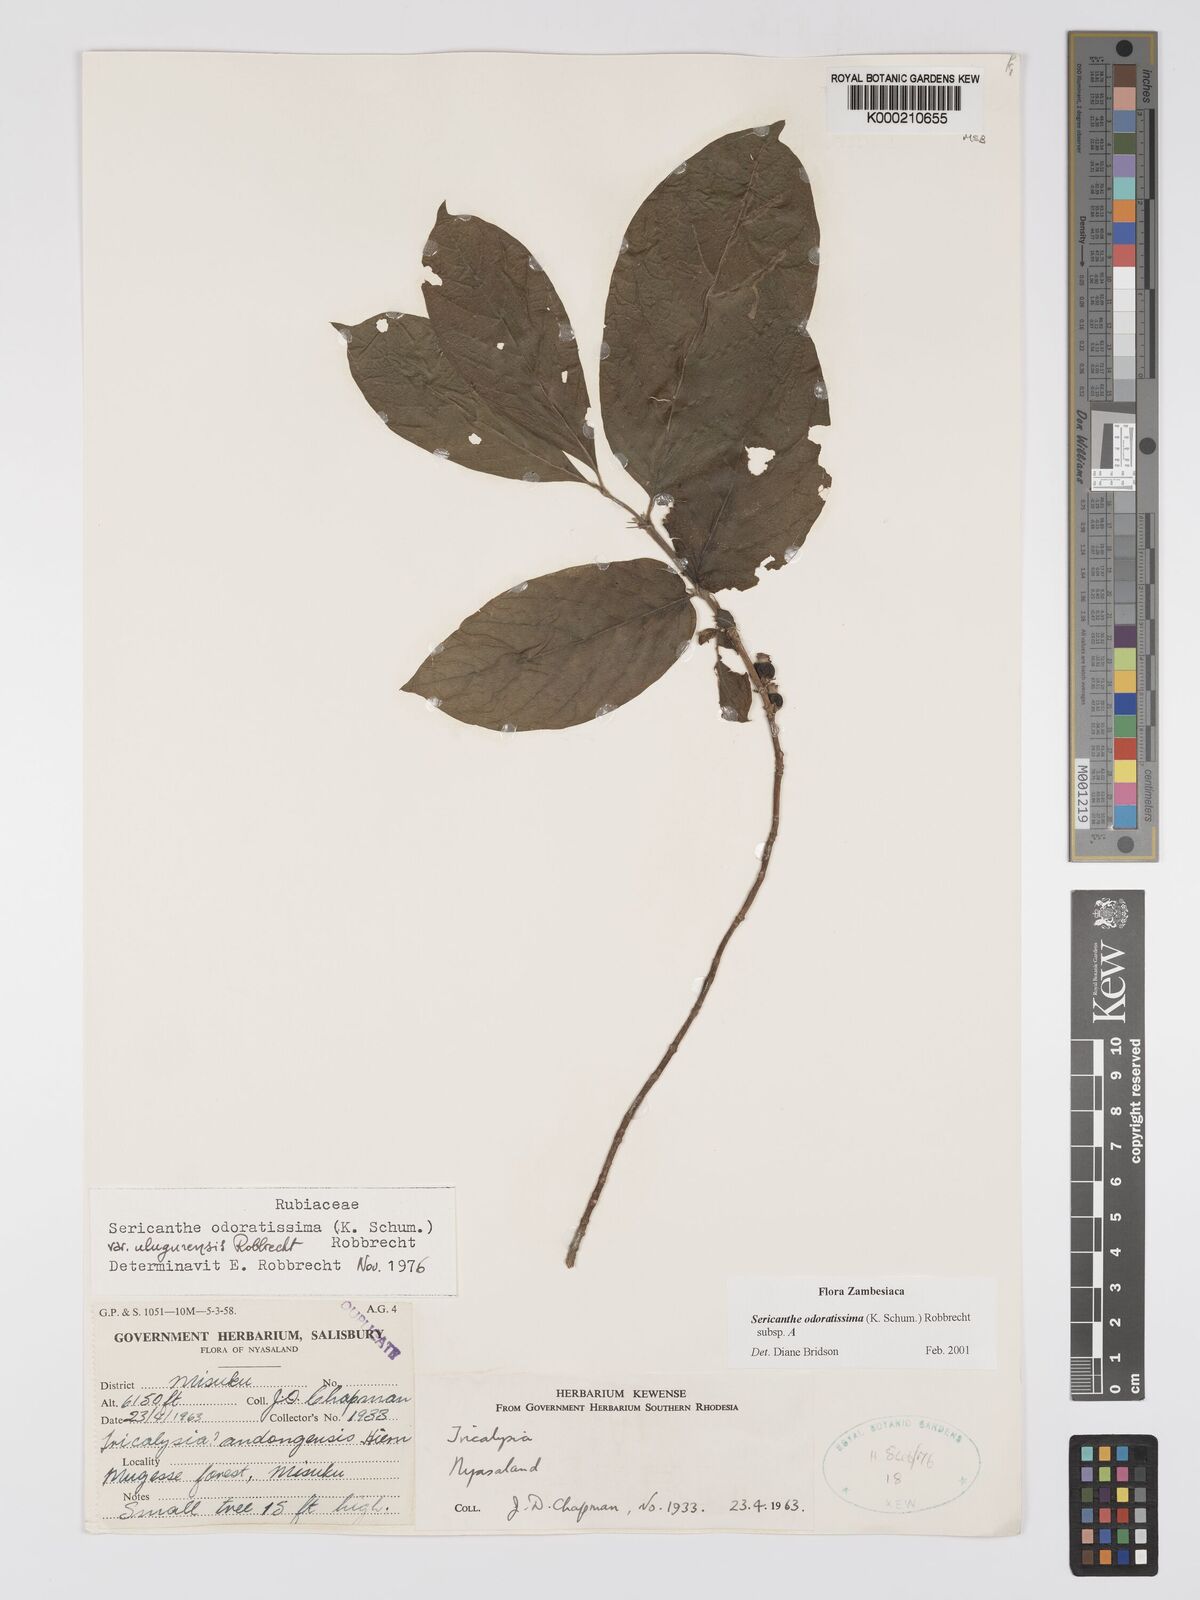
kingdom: Plantae
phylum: Tracheophyta
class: Magnoliopsida
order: Gentianales
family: Rubiaceae
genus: Sericanthe
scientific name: Sericanthe odoratissima
